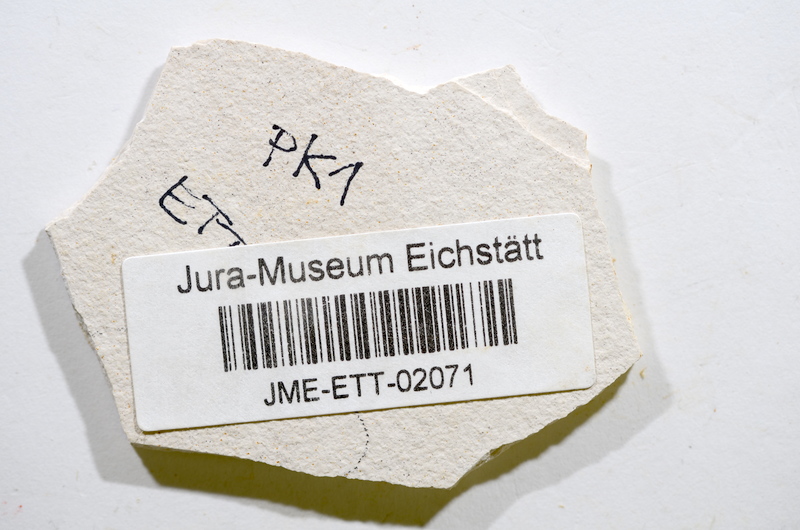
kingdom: Animalia
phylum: Chordata
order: Salmoniformes
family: Orthogonikleithridae
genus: Orthogonikleithrus
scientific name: Orthogonikleithrus hoelli
